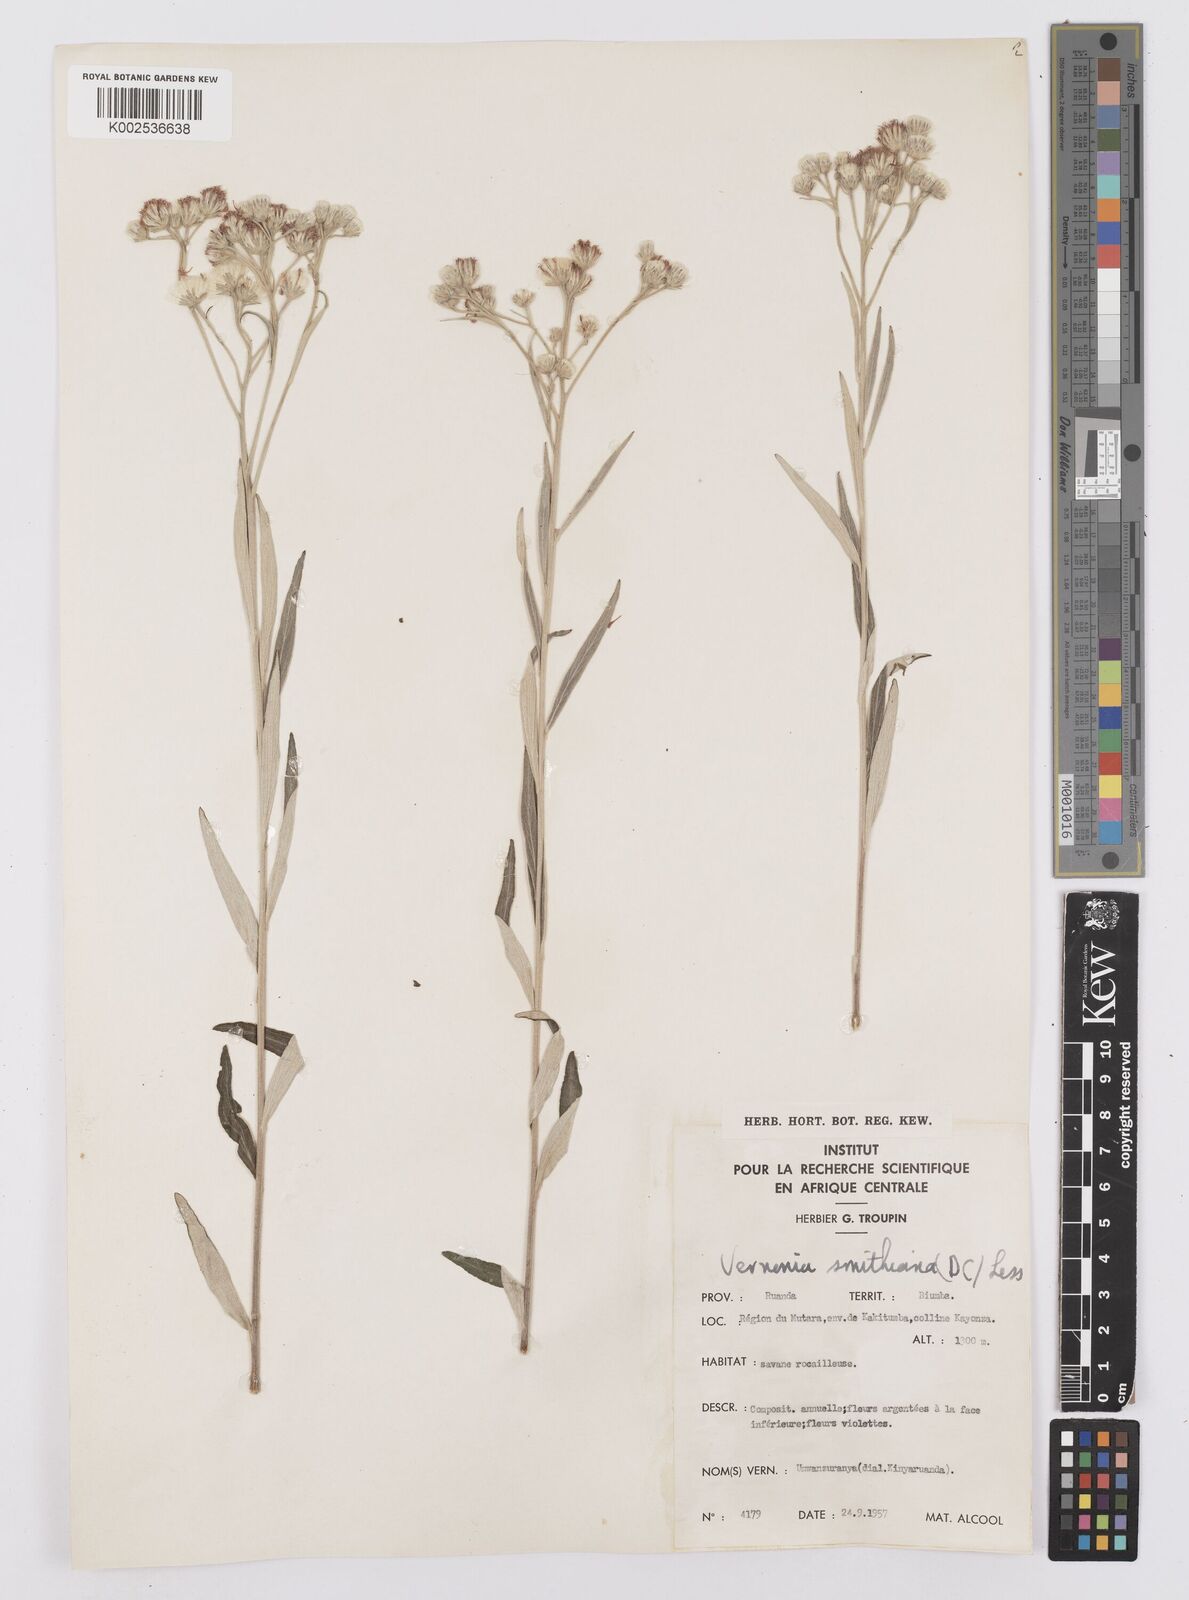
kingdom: Plantae
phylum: Tracheophyta
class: Magnoliopsida
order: Asterales
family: Asteraceae
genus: Hilliardiella
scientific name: Hilliardiella smithiana
